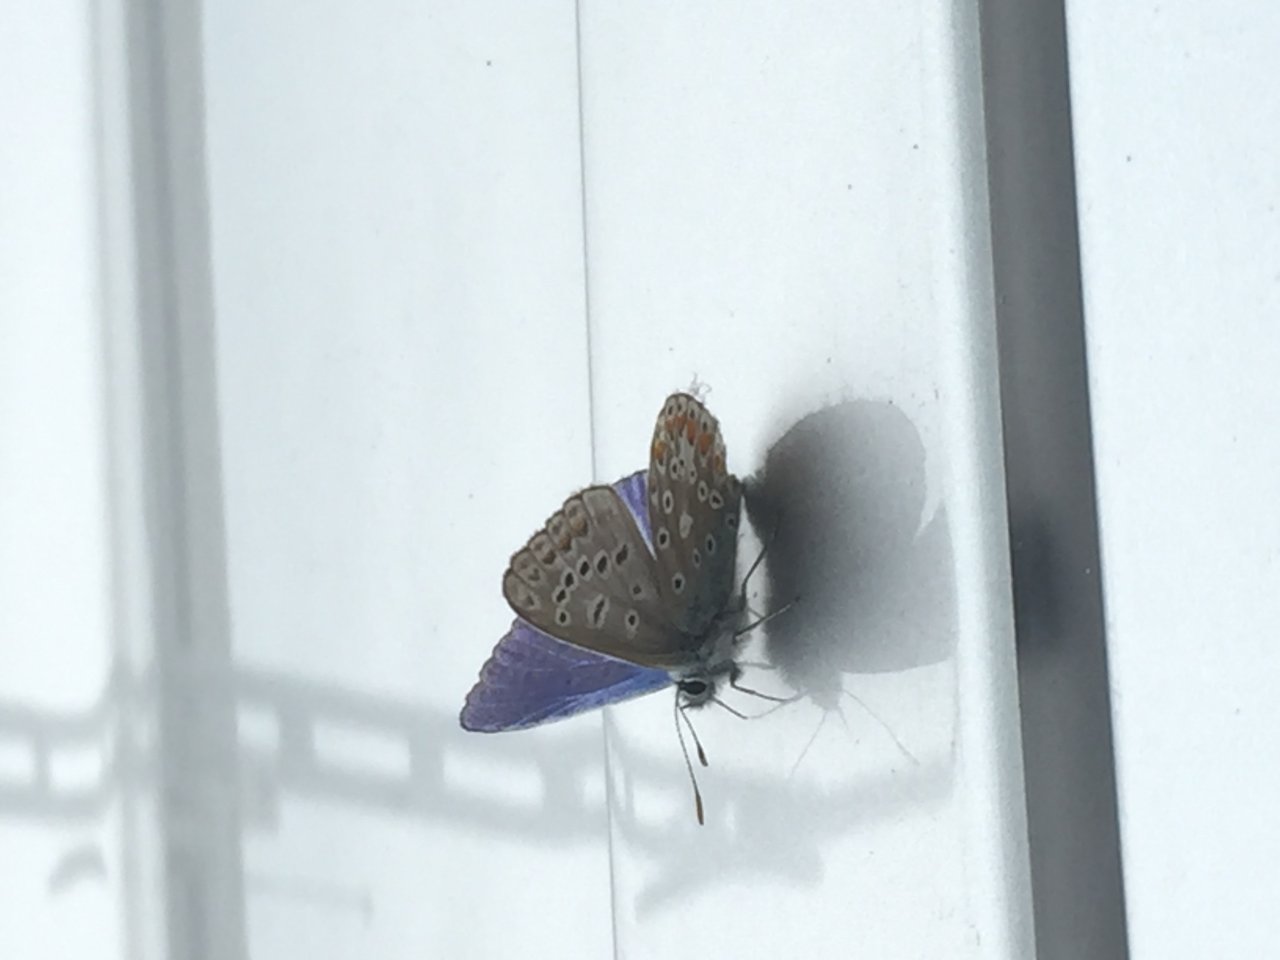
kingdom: Animalia
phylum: Arthropoda
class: Insecta
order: Lepidoptera
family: Lycaenidae
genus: Polyommatus
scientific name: Polyommatus icarus
